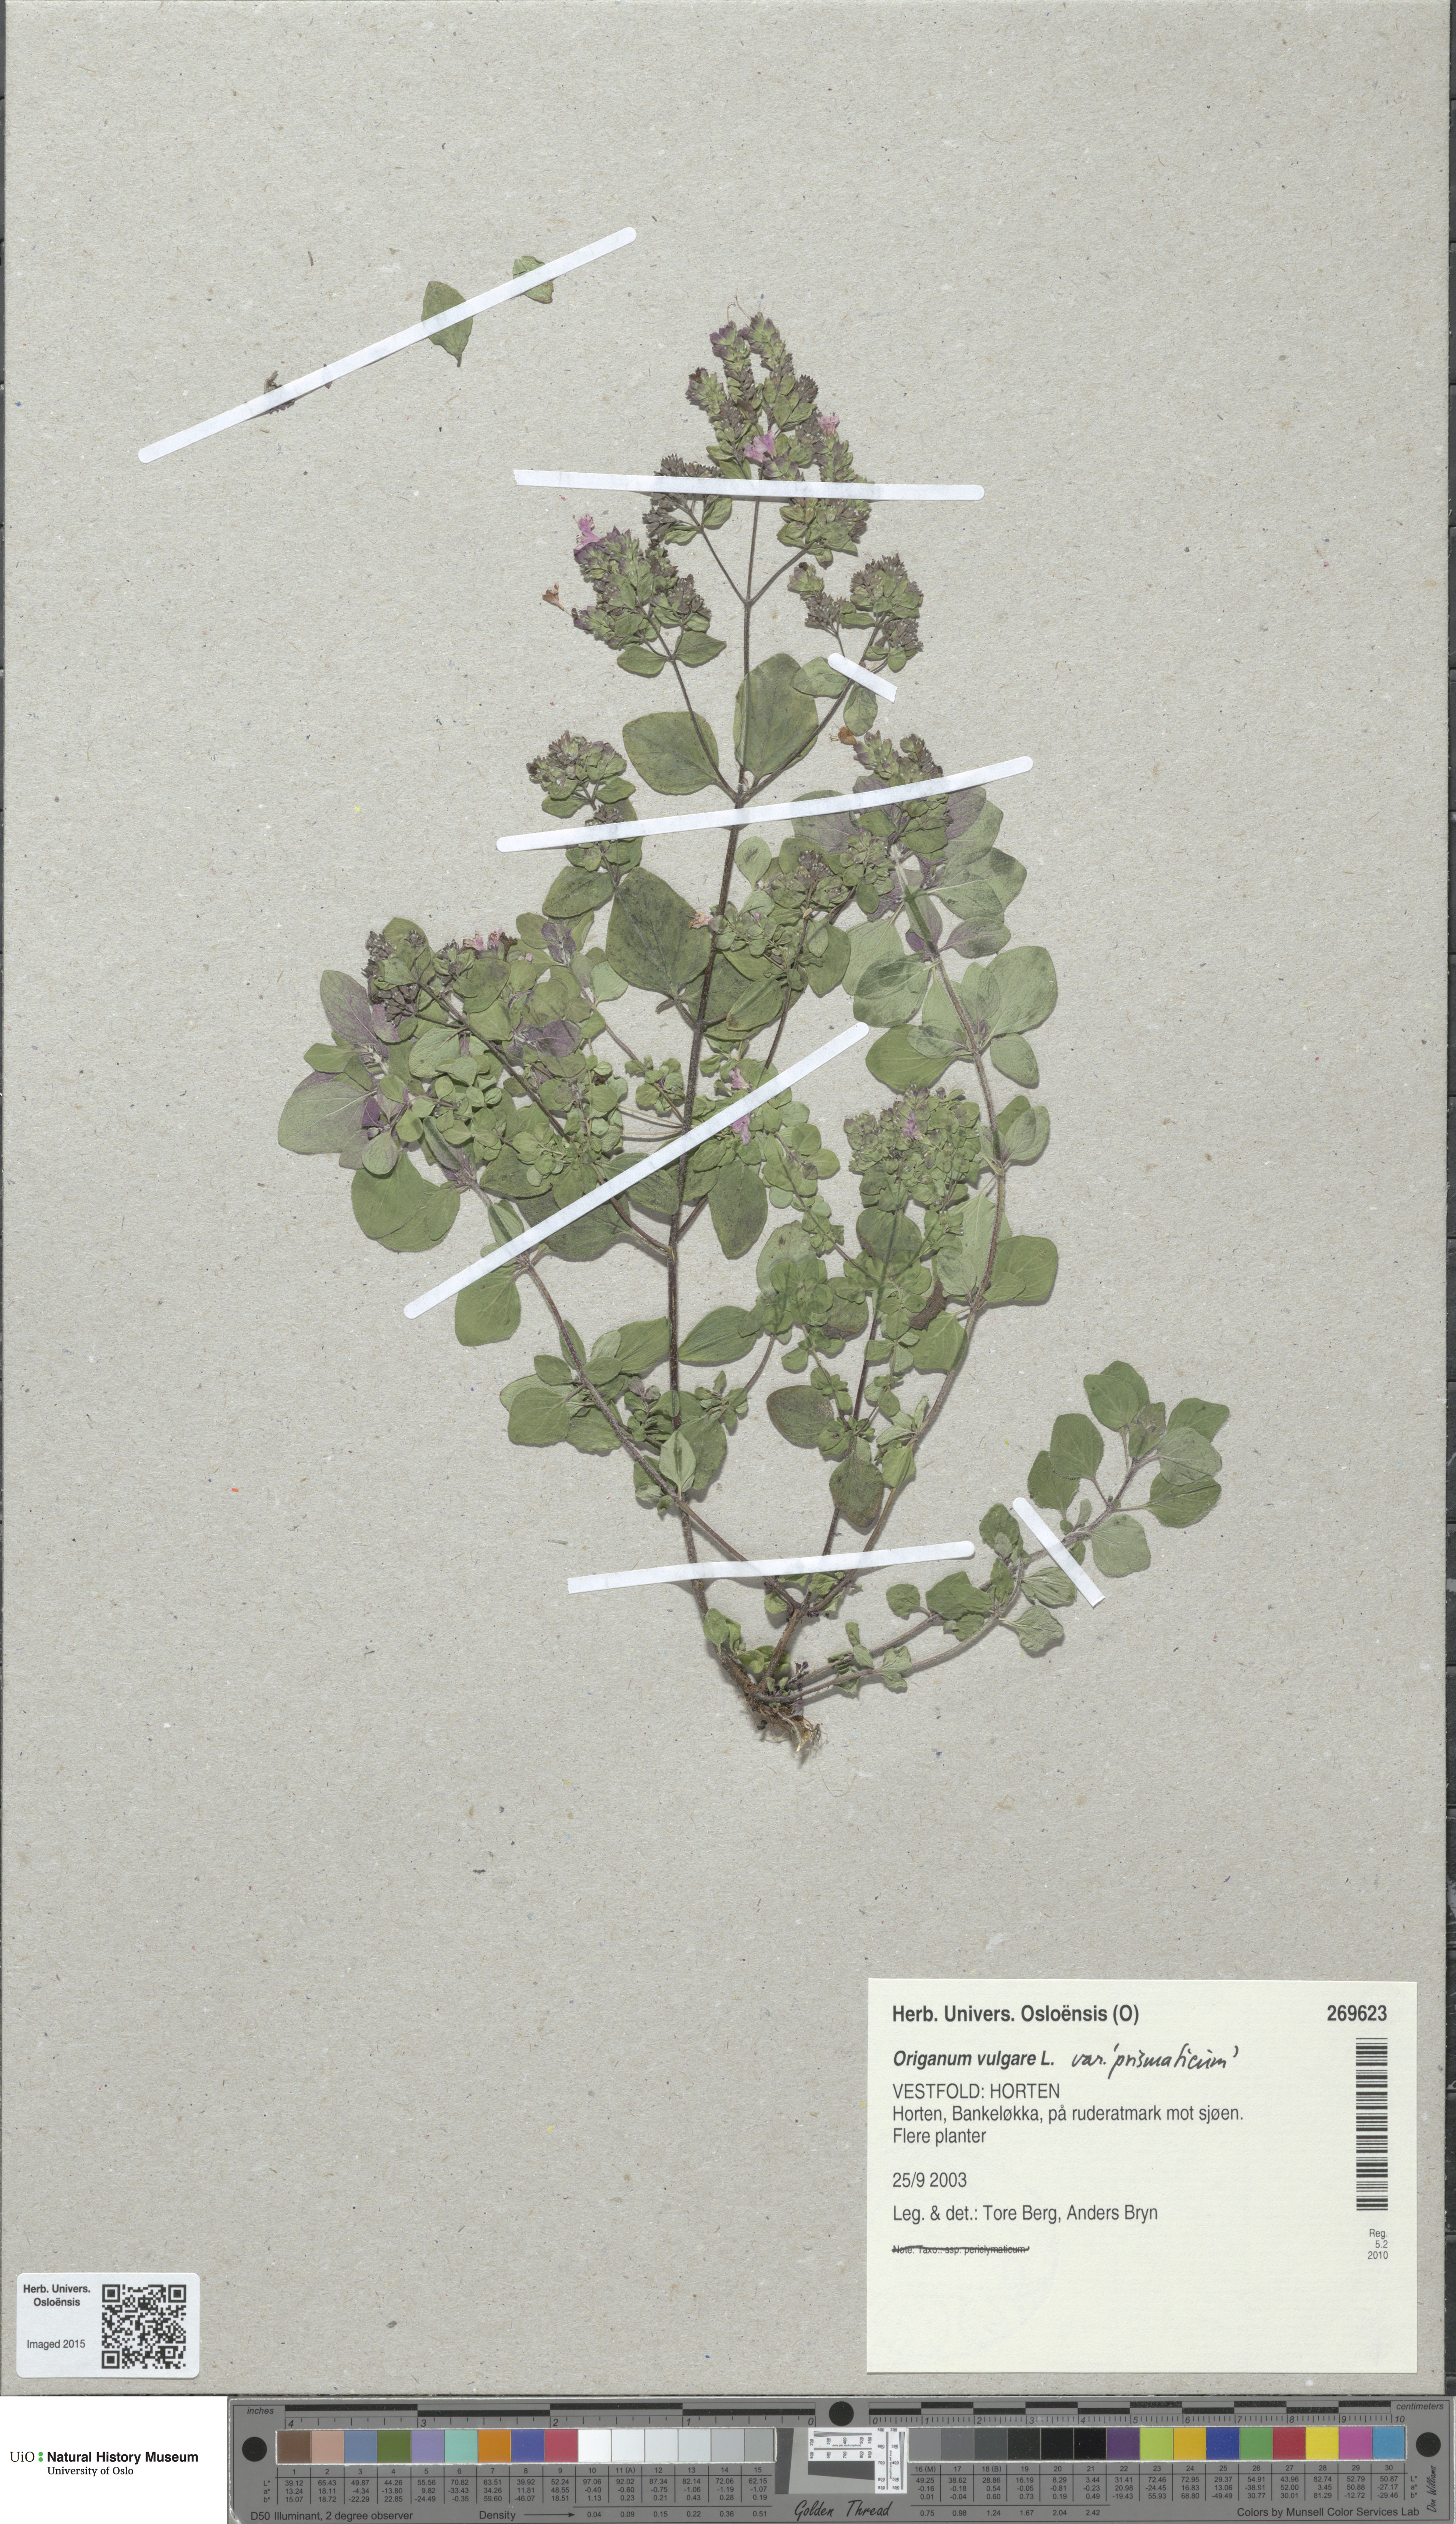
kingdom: Plantae
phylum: Tracheophyta
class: Magnoliopsida
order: Lamiales
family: Lamiaceae
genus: Origanum
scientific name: Origanum vulgare
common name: Wild marjoram
